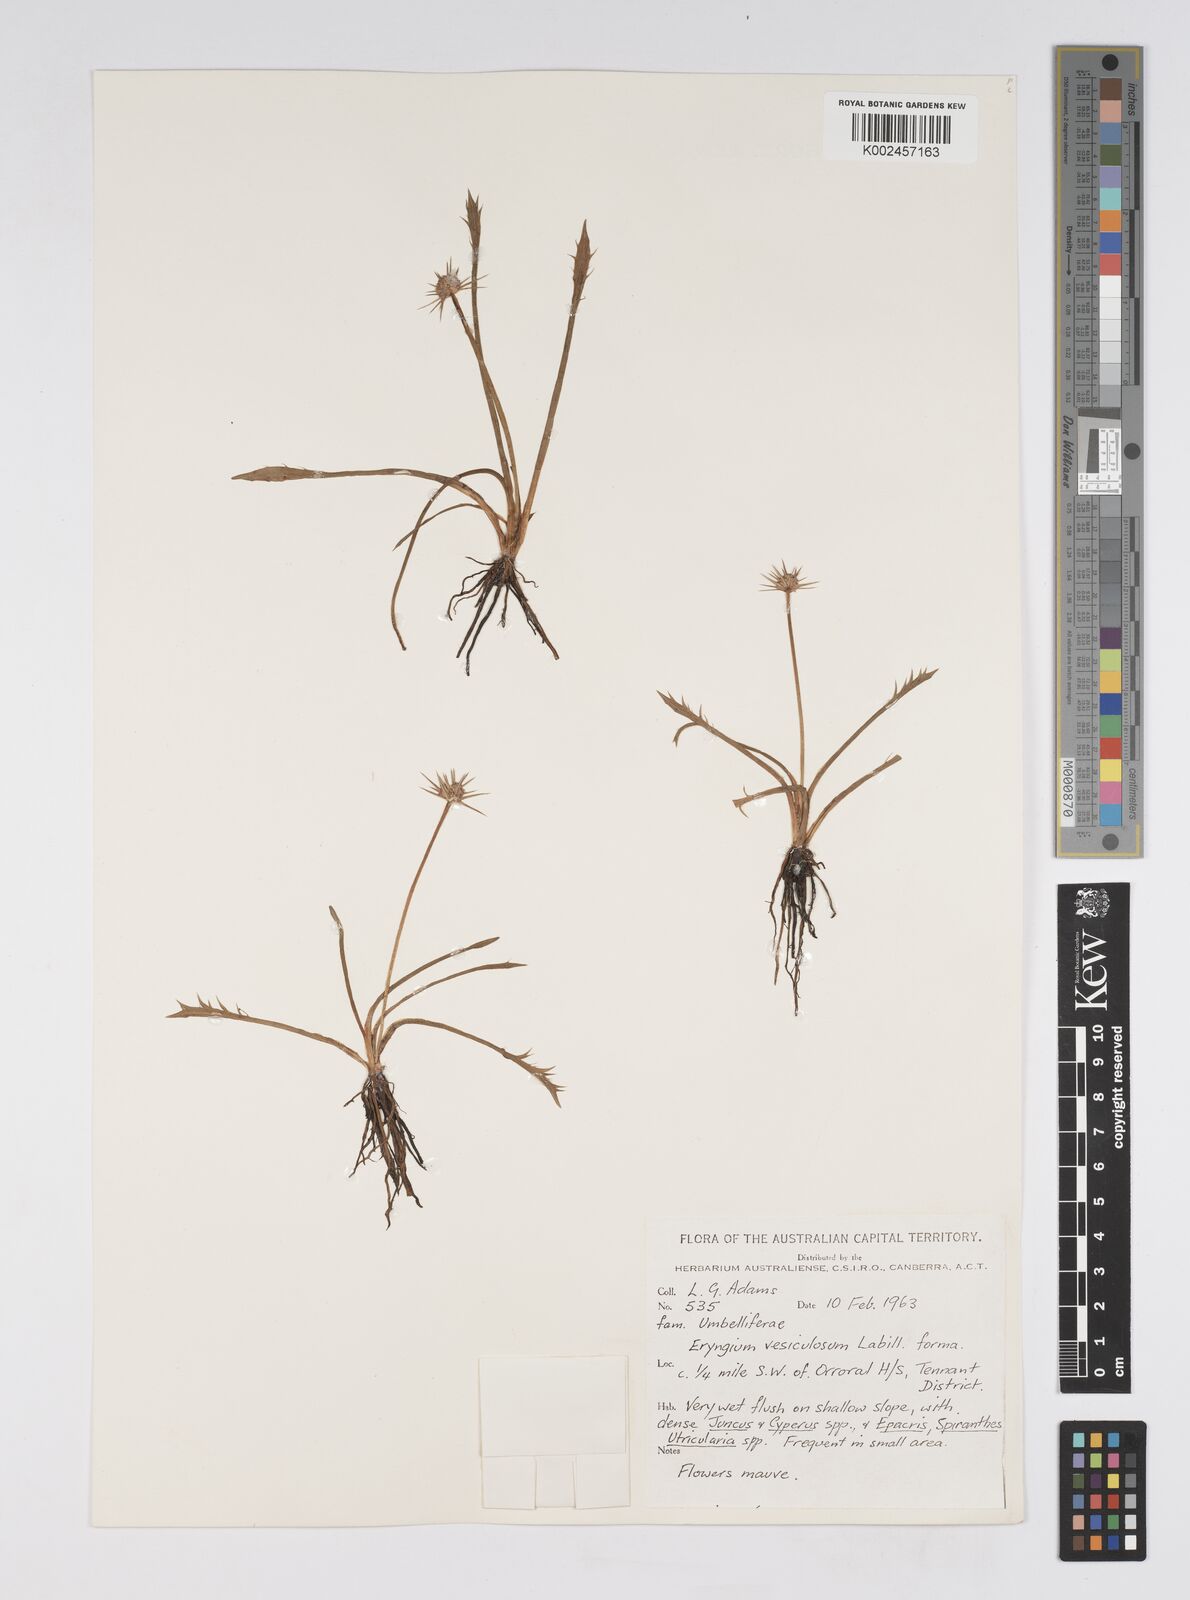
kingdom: Plantae
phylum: Tracheophyta
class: Magnoliopsida
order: Apiales
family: Apiaceae
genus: Eryngium
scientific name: Eryngium vesiculosum
